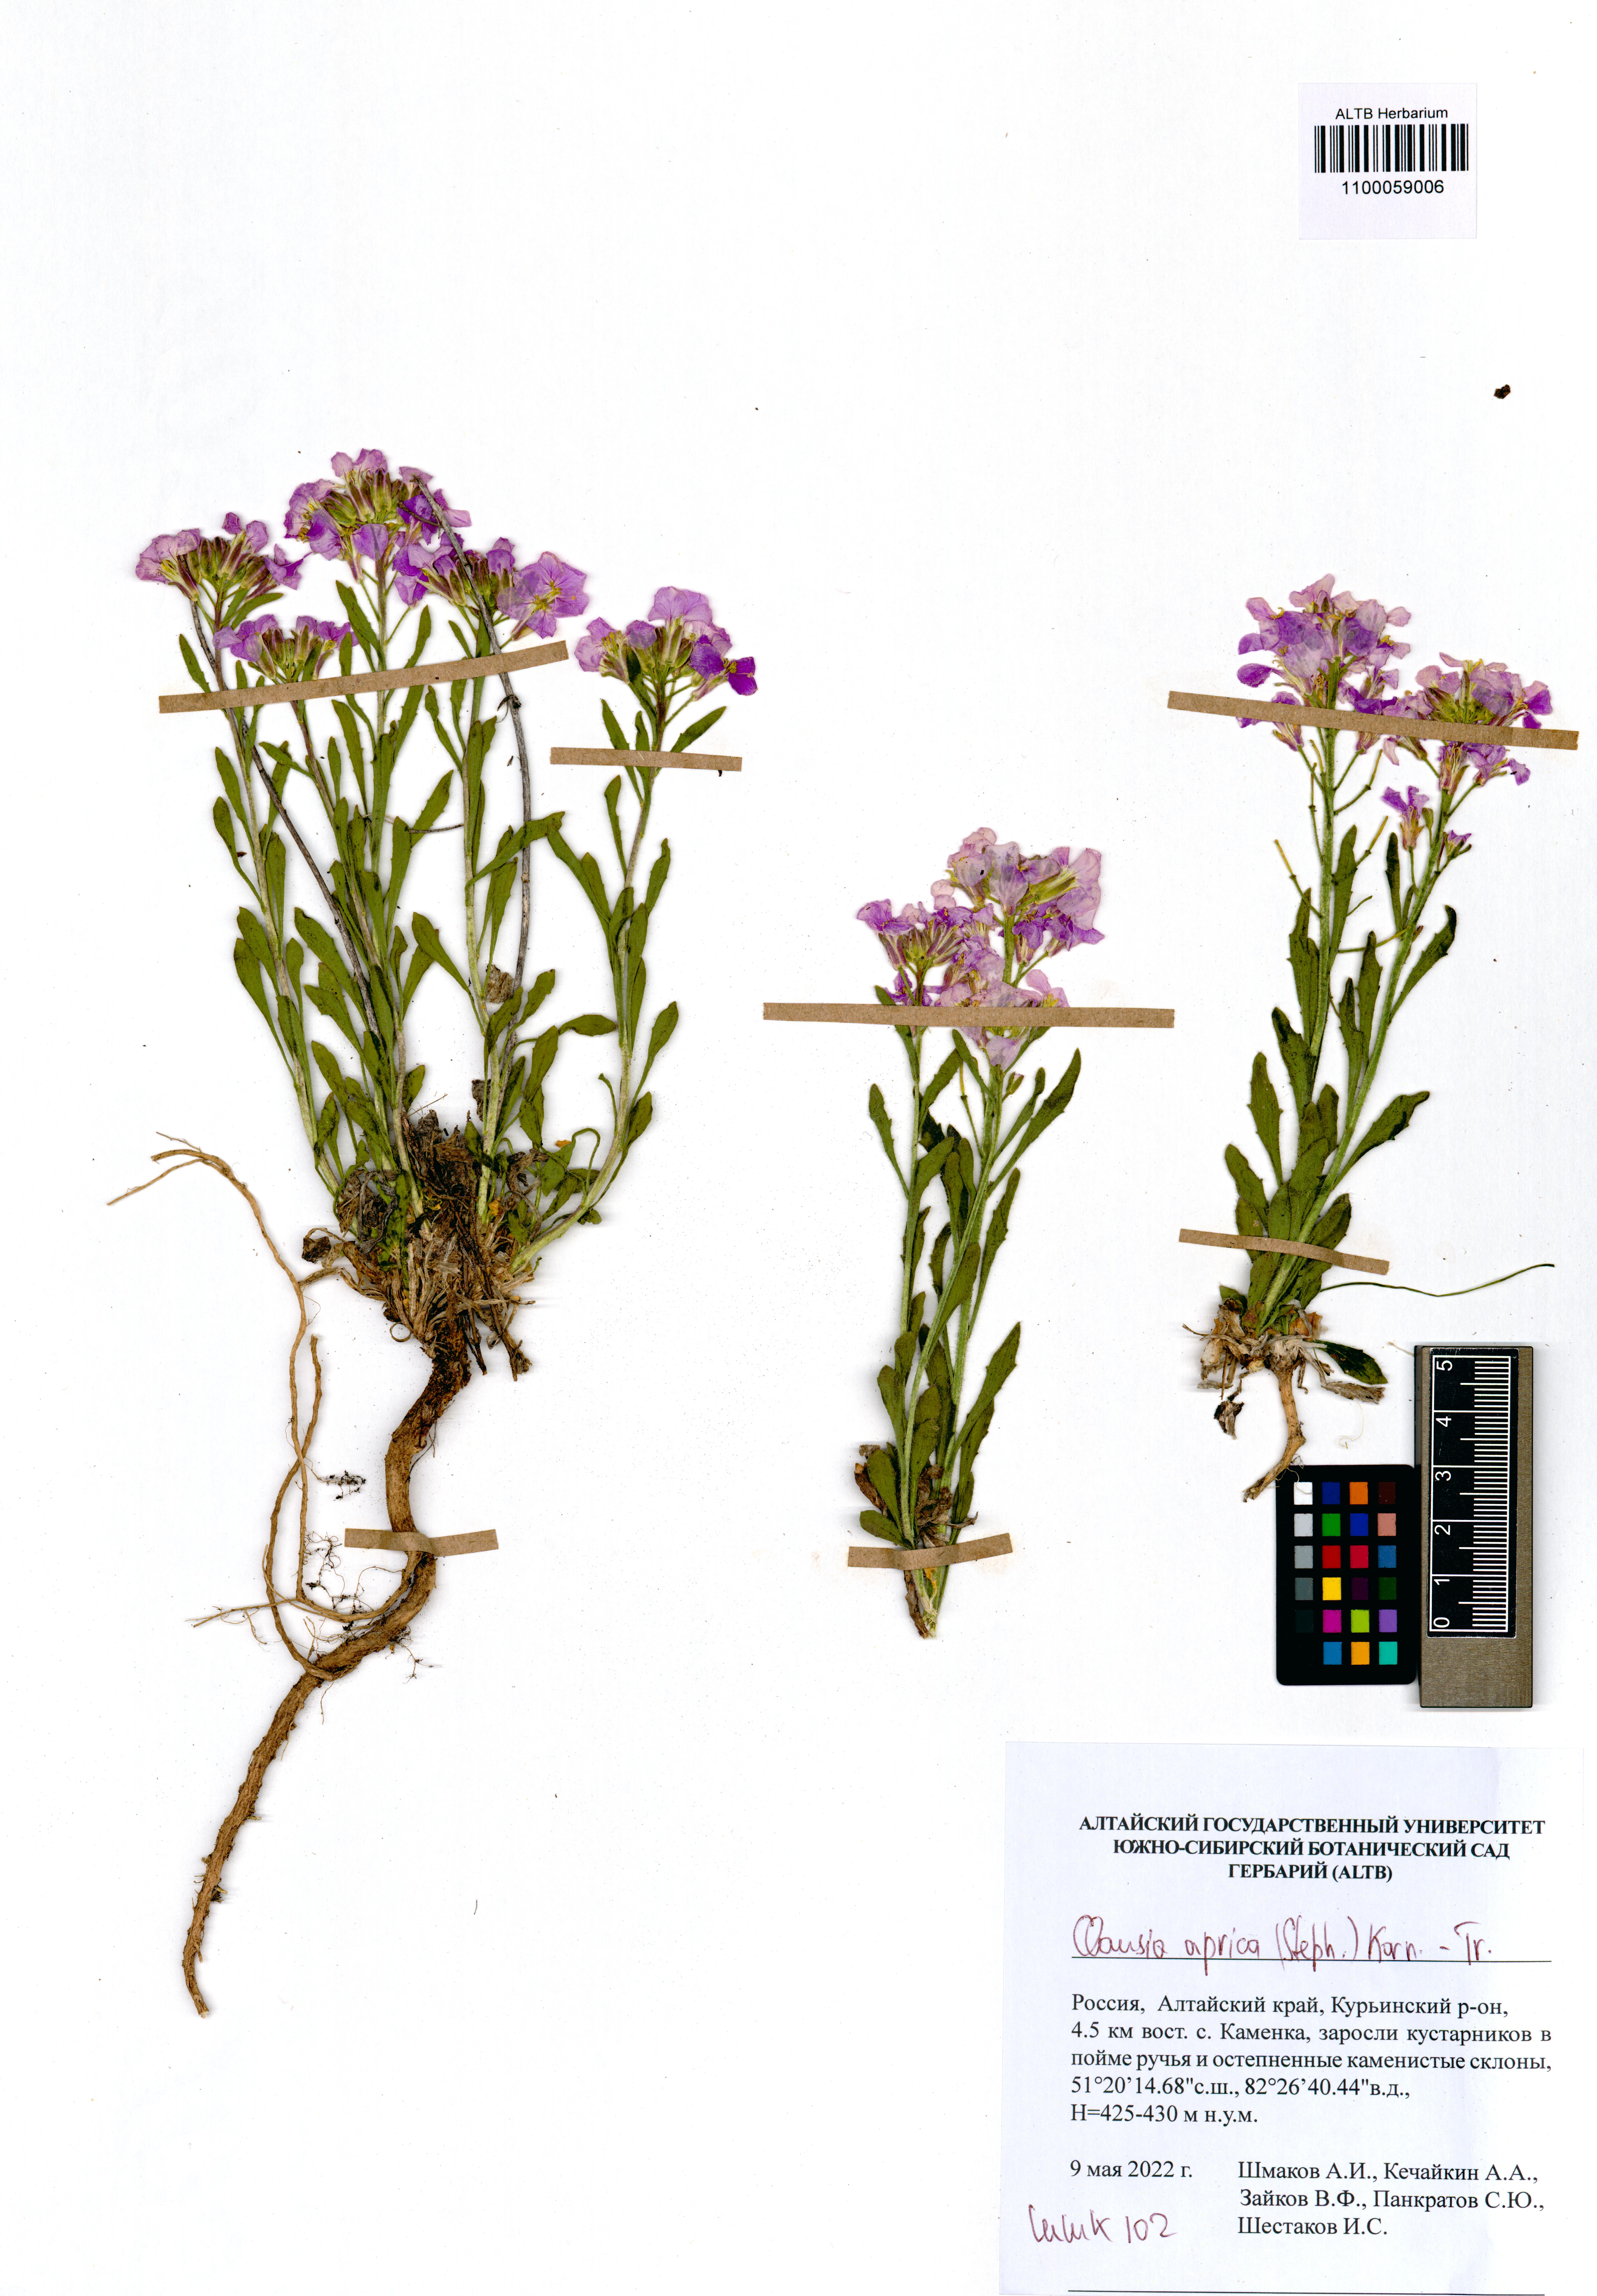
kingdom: Plantae
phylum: Tracheophyta
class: Magnoliopsida
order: Brassicales
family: Brassicaceae
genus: Clausia
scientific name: Clausia aprica
